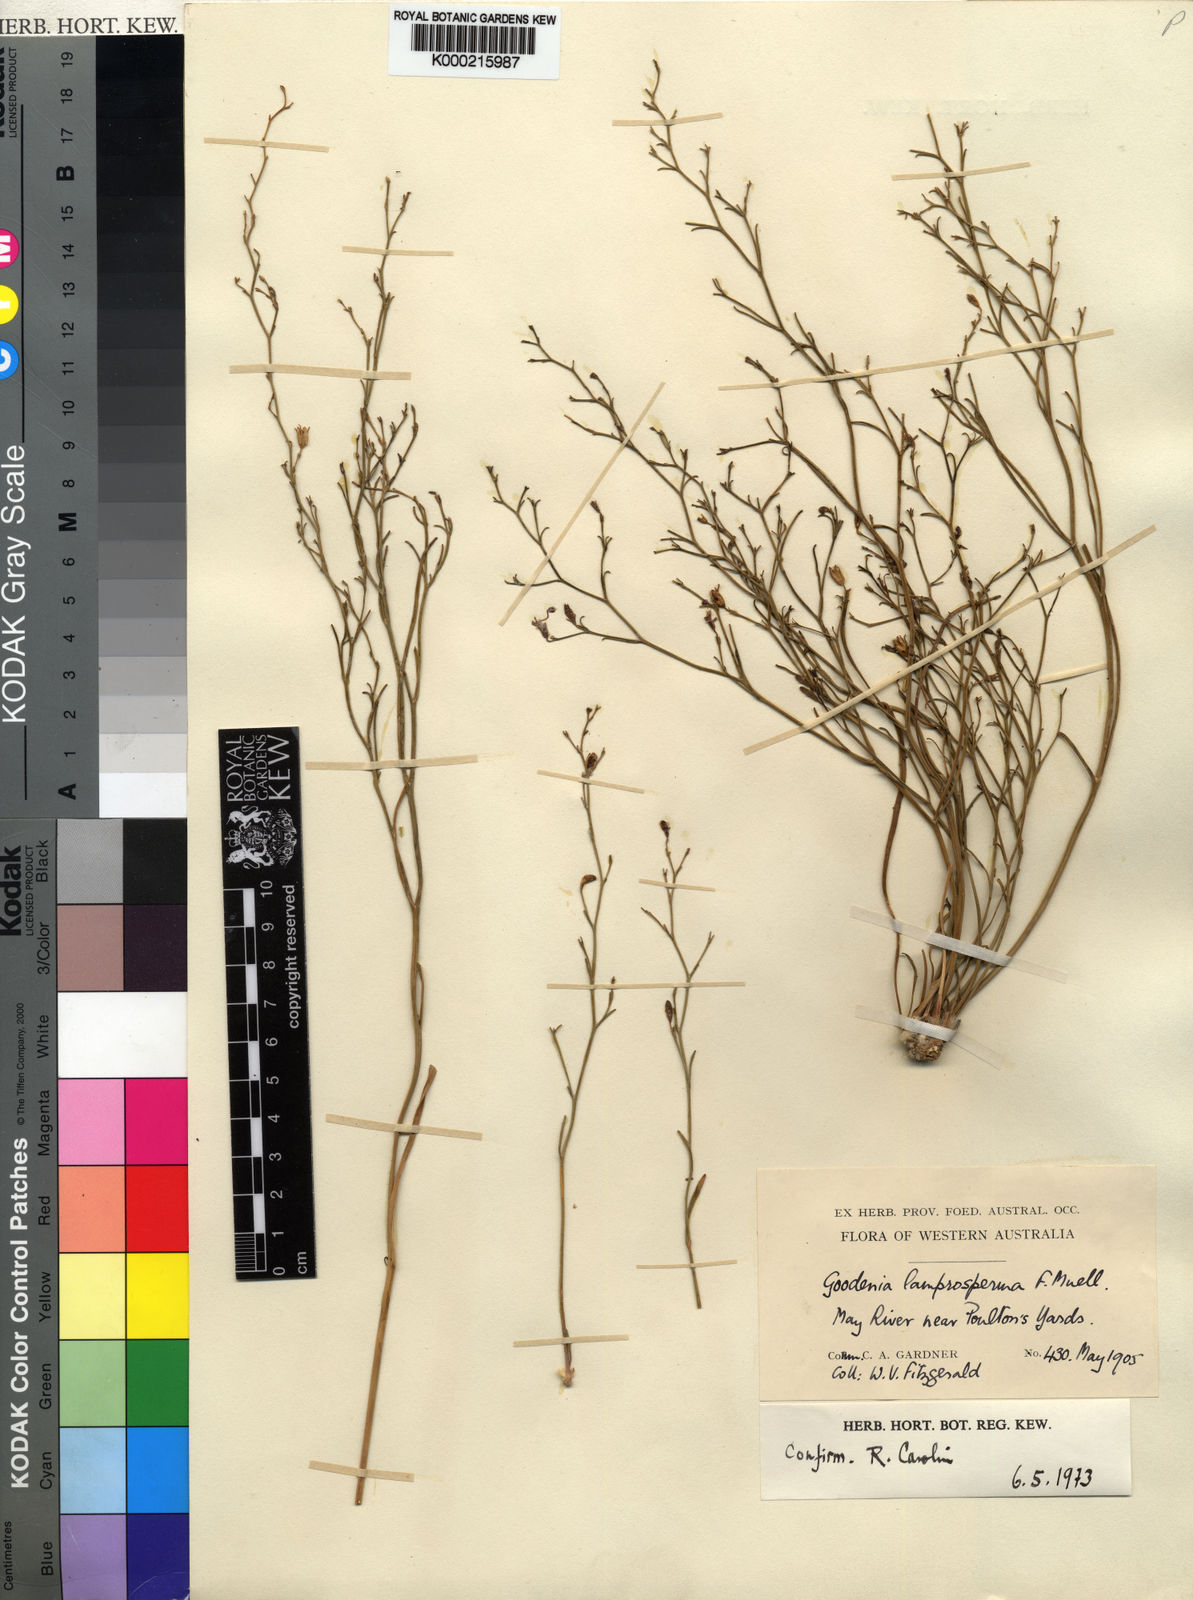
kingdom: Plantae
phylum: Tracheophyta
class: Magnoliopsida
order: Asterales
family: Goodeniaceae
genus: Goodenia
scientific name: Goodenia lamprosperma
